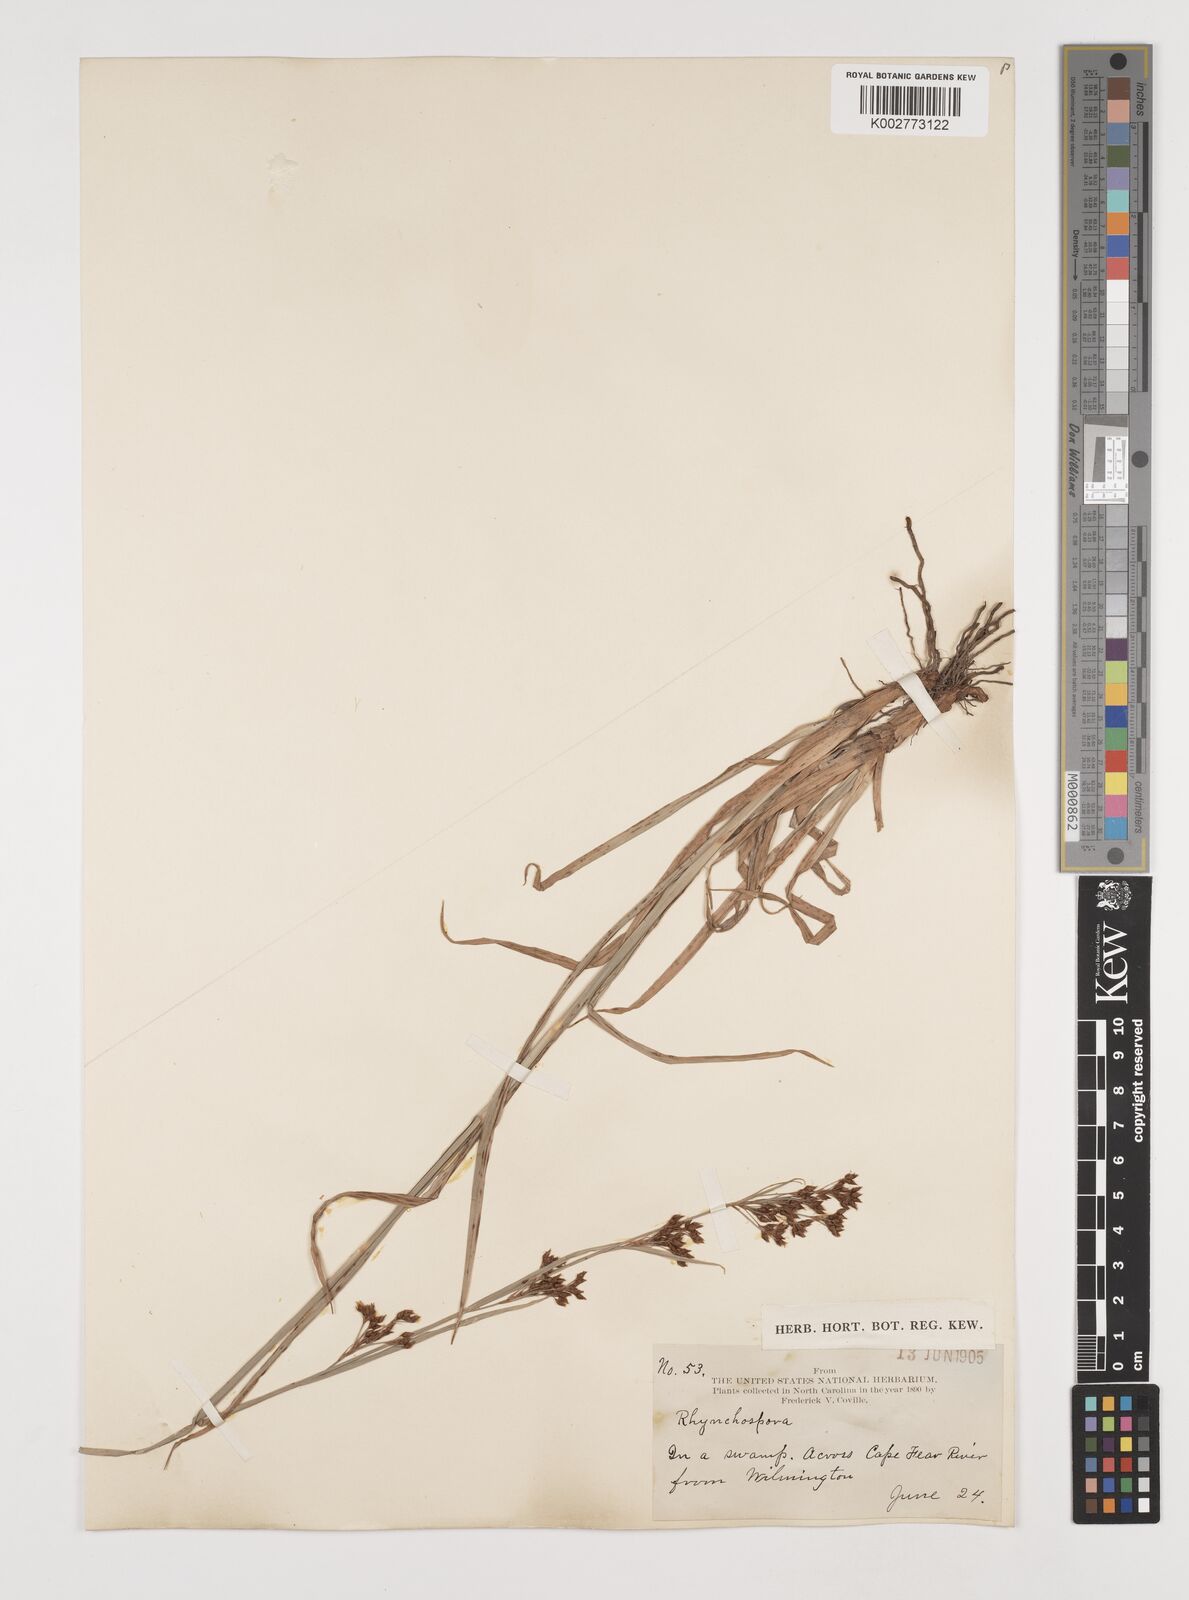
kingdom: Plantae
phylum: Tracheophyta
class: Liliopsida
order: Poales
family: Cyperaceae
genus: Rhynchospora
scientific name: Rhynchospora
